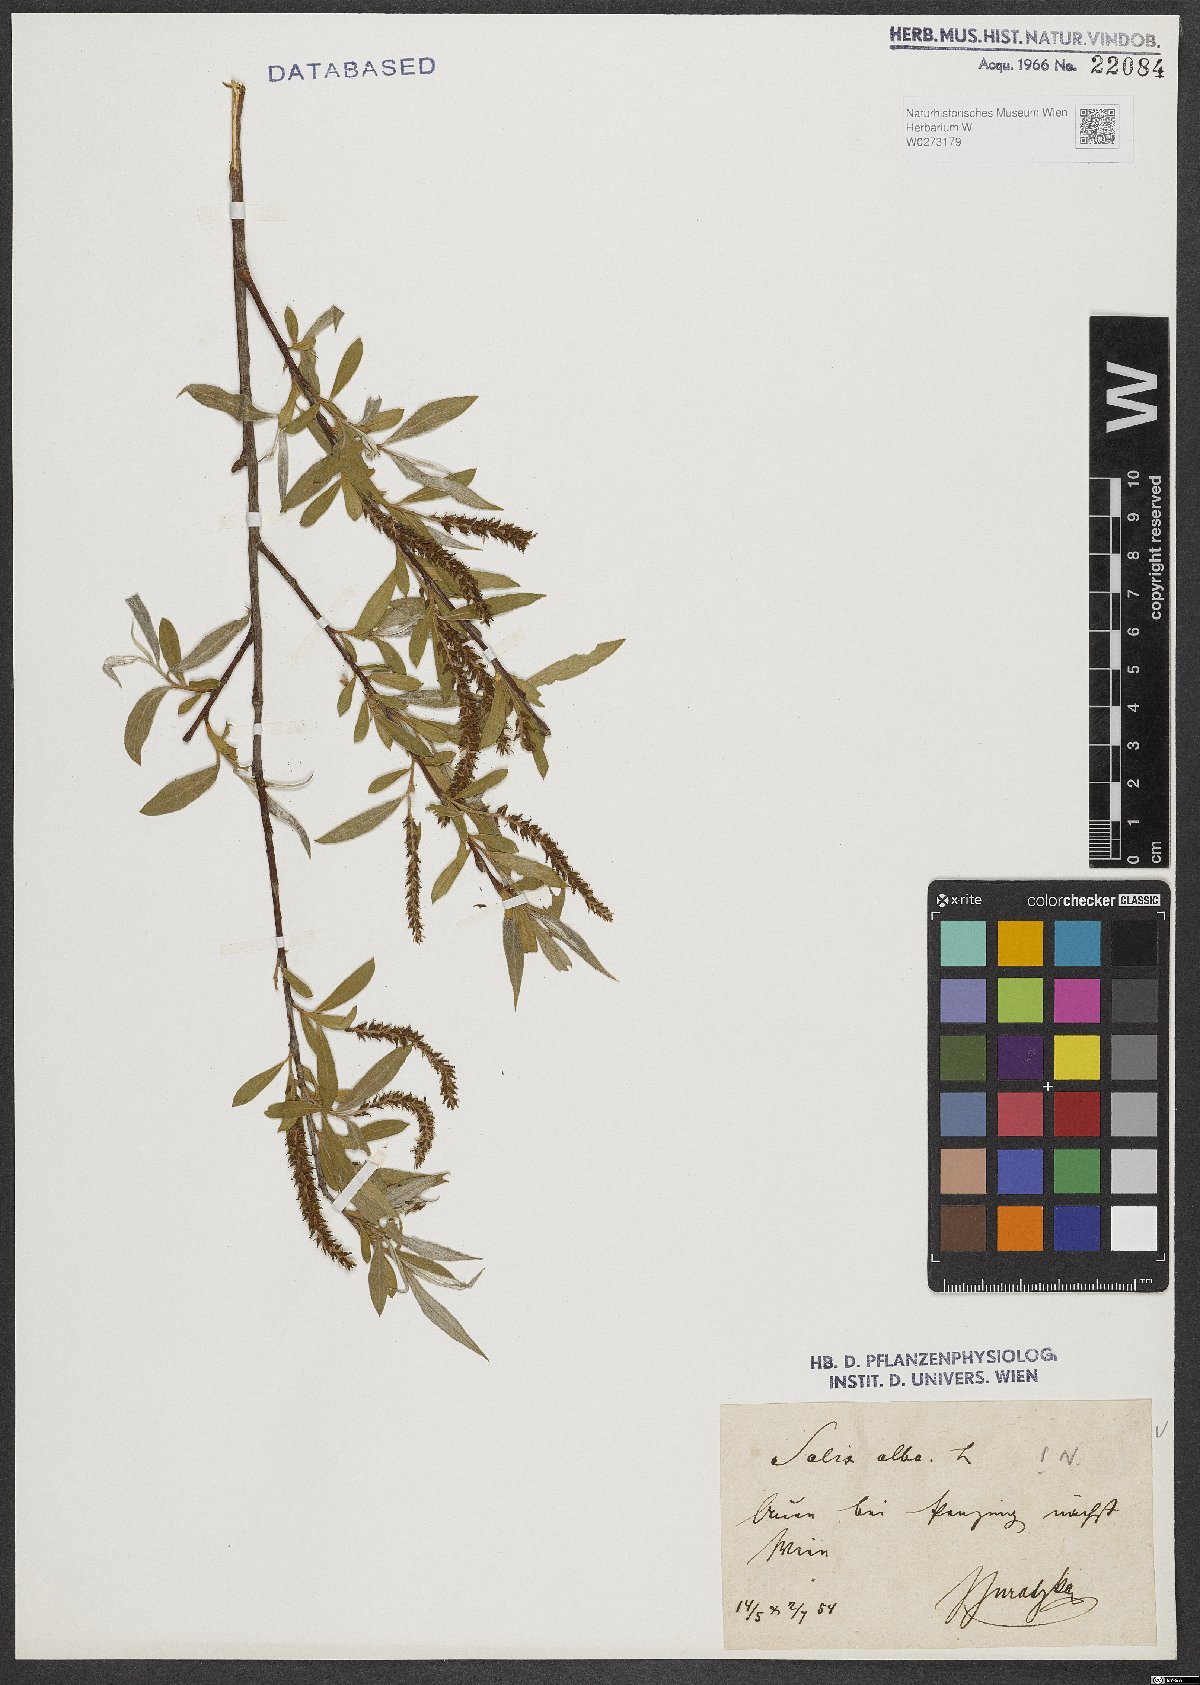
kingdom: Plantae
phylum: Tracheophyta
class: Magnoliopsida
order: Malpighiales
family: Salicaceae
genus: Salix
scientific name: Salix alba
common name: White willow
